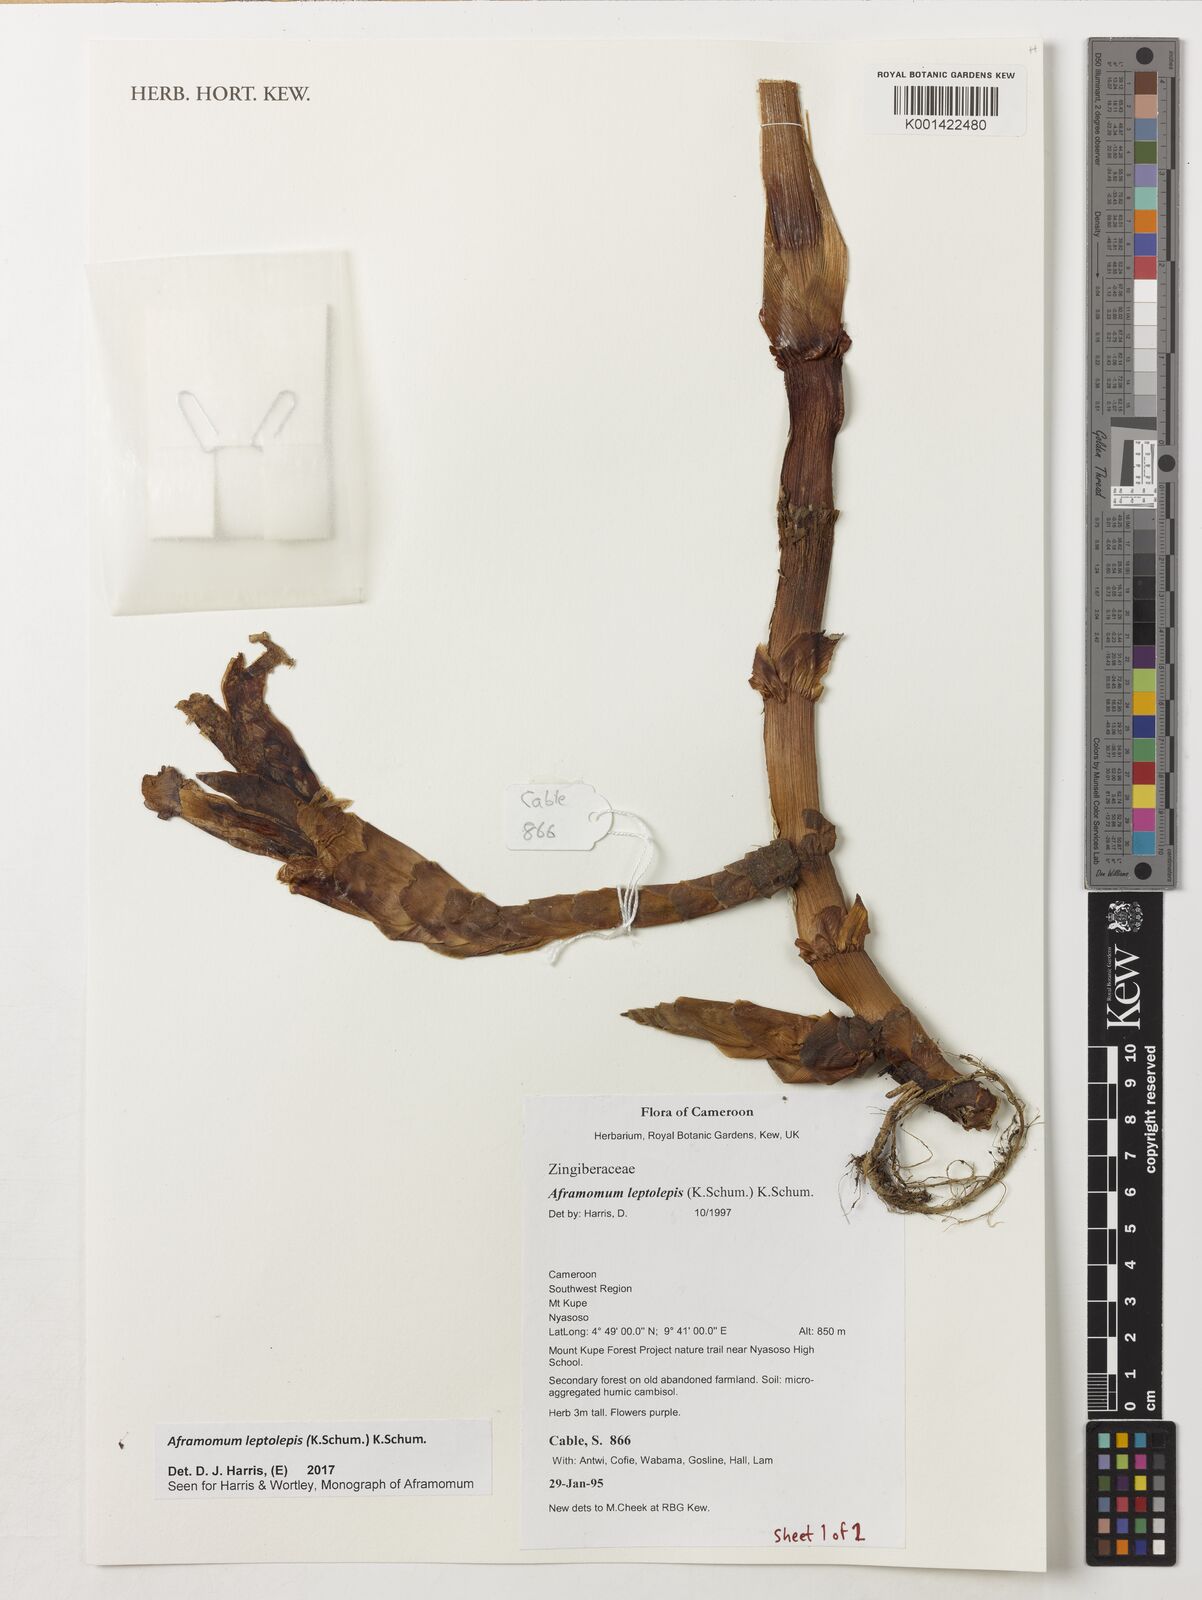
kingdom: Plantae
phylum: Tracheophyta
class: Liliopsida
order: Zingiberales
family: Zingiberaceae
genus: Aframomum
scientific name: Aframomum leptolepis
